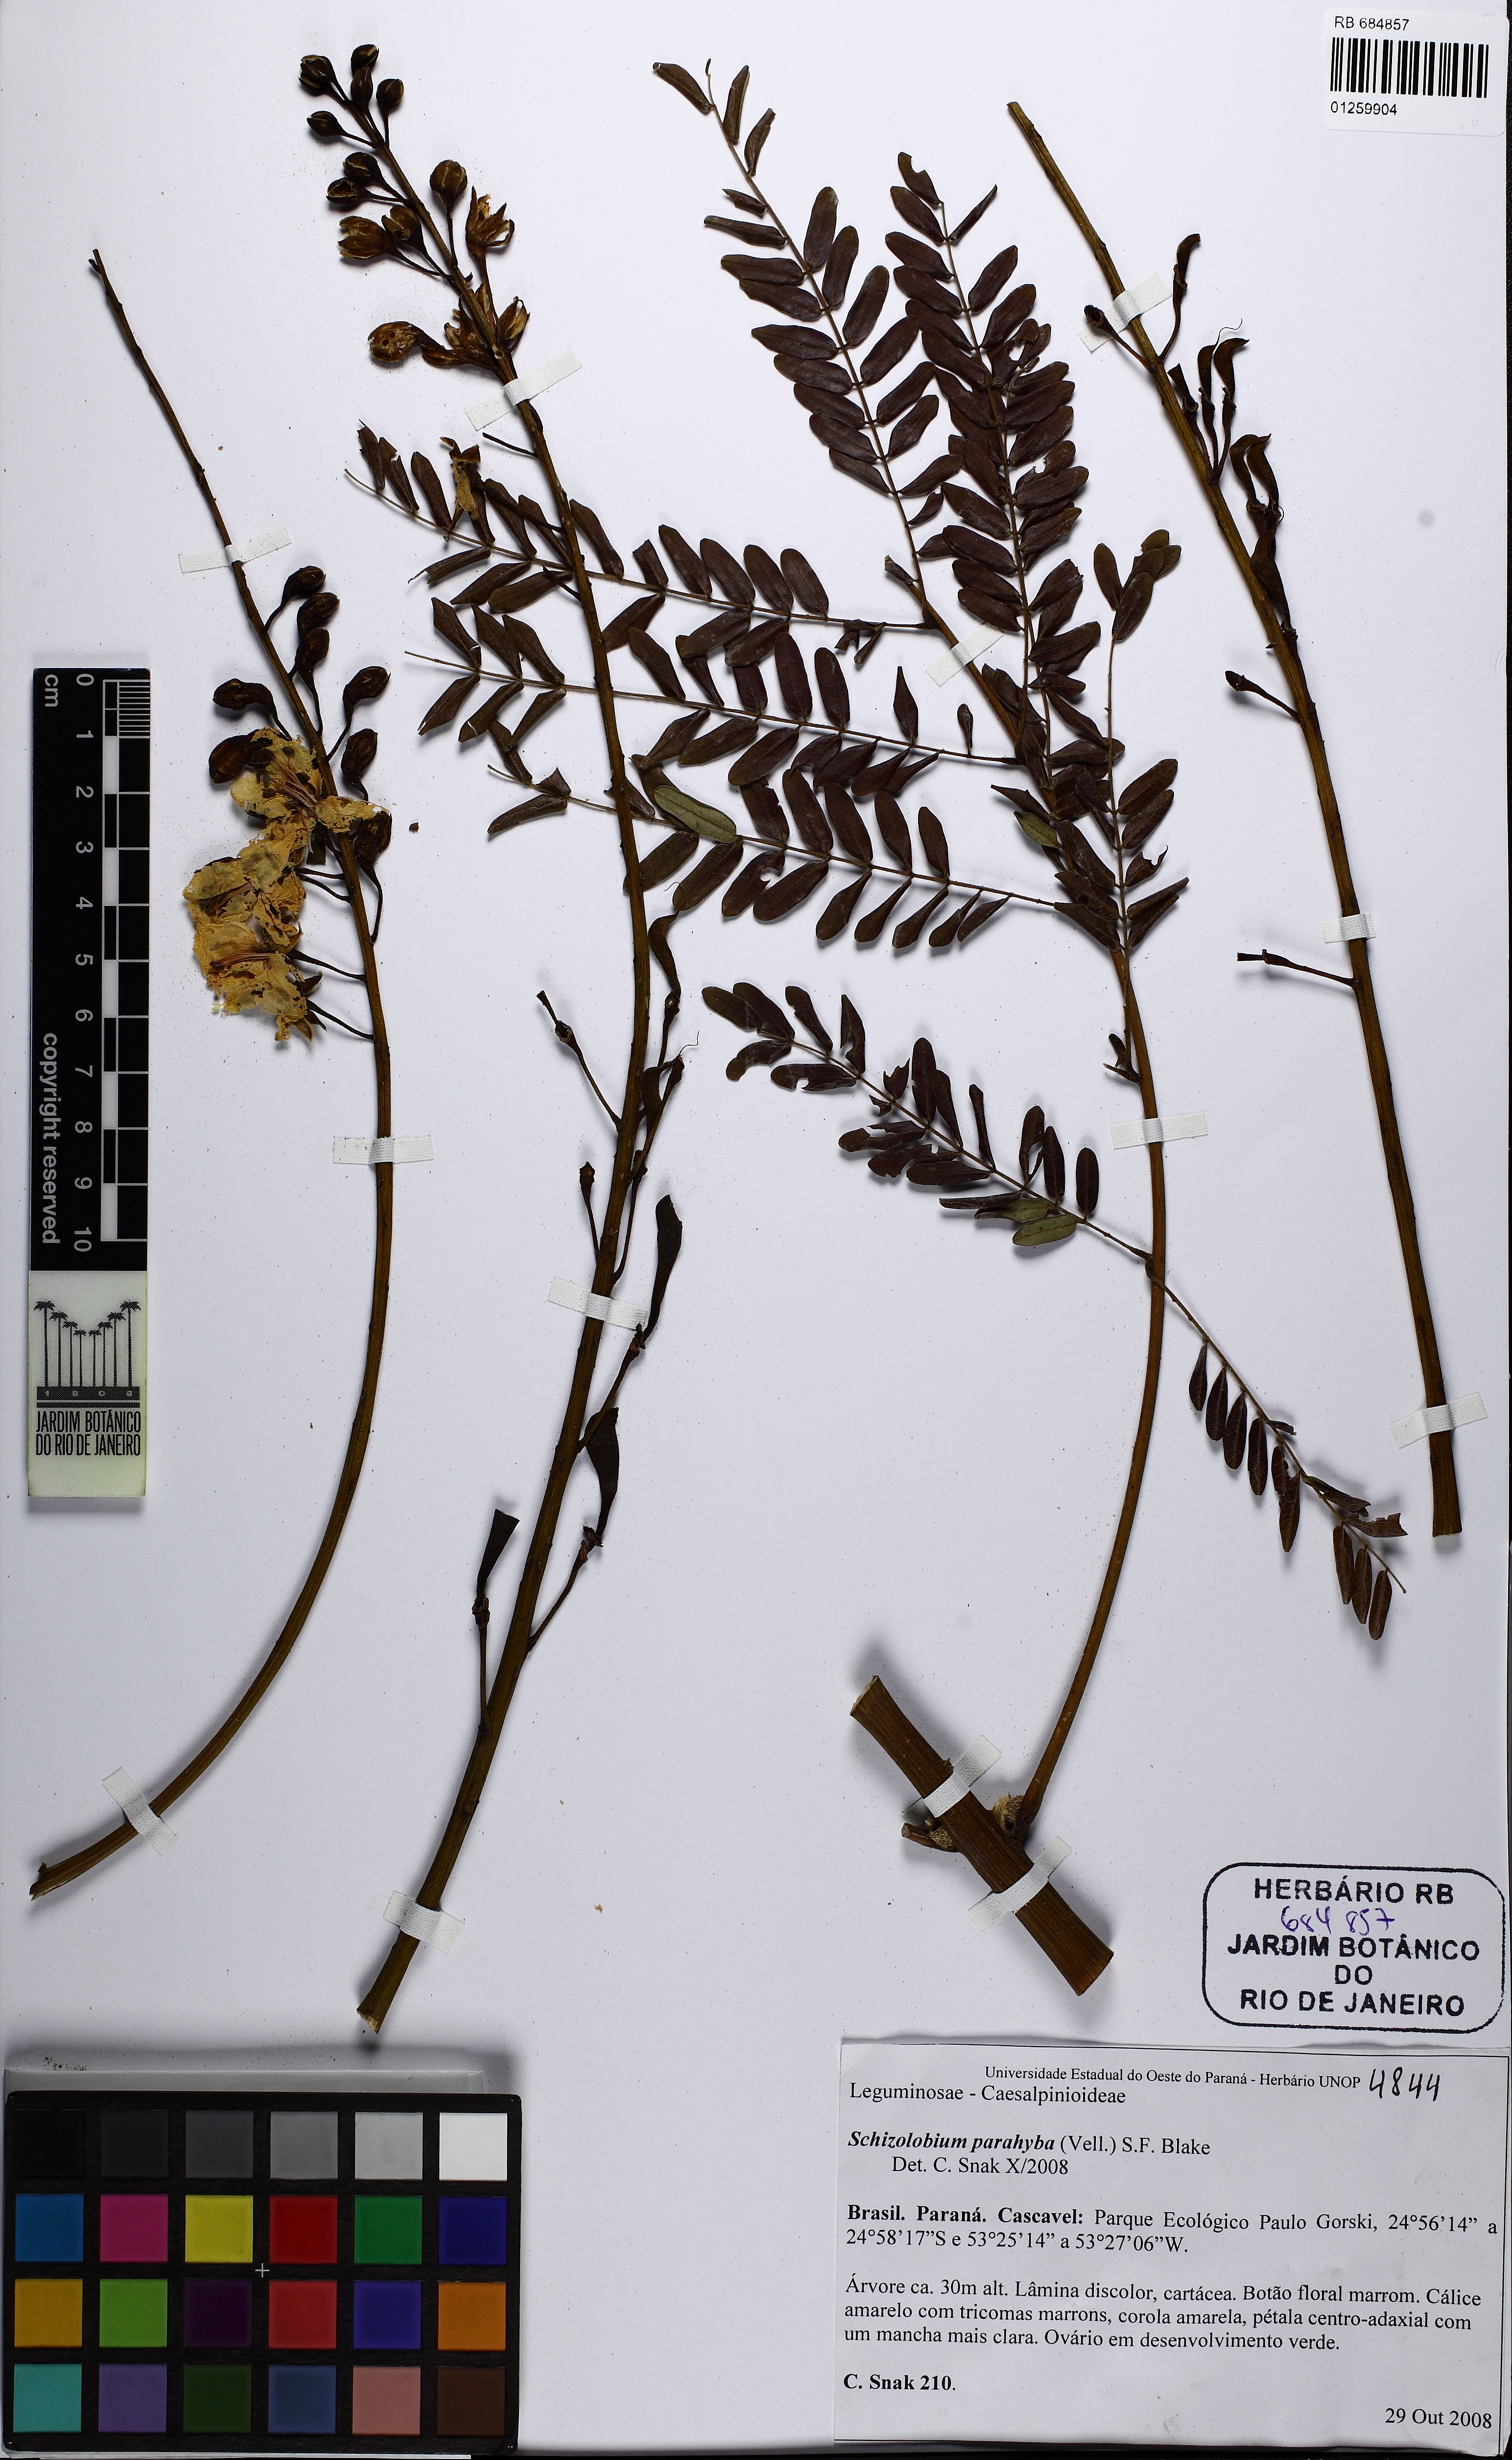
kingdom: Plantae
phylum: Tracheophyta
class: Magnoliopsida
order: Fabales
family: Fabaceae
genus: Schizolobium
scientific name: Schizolobium parahyba
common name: Brazilian firetree
